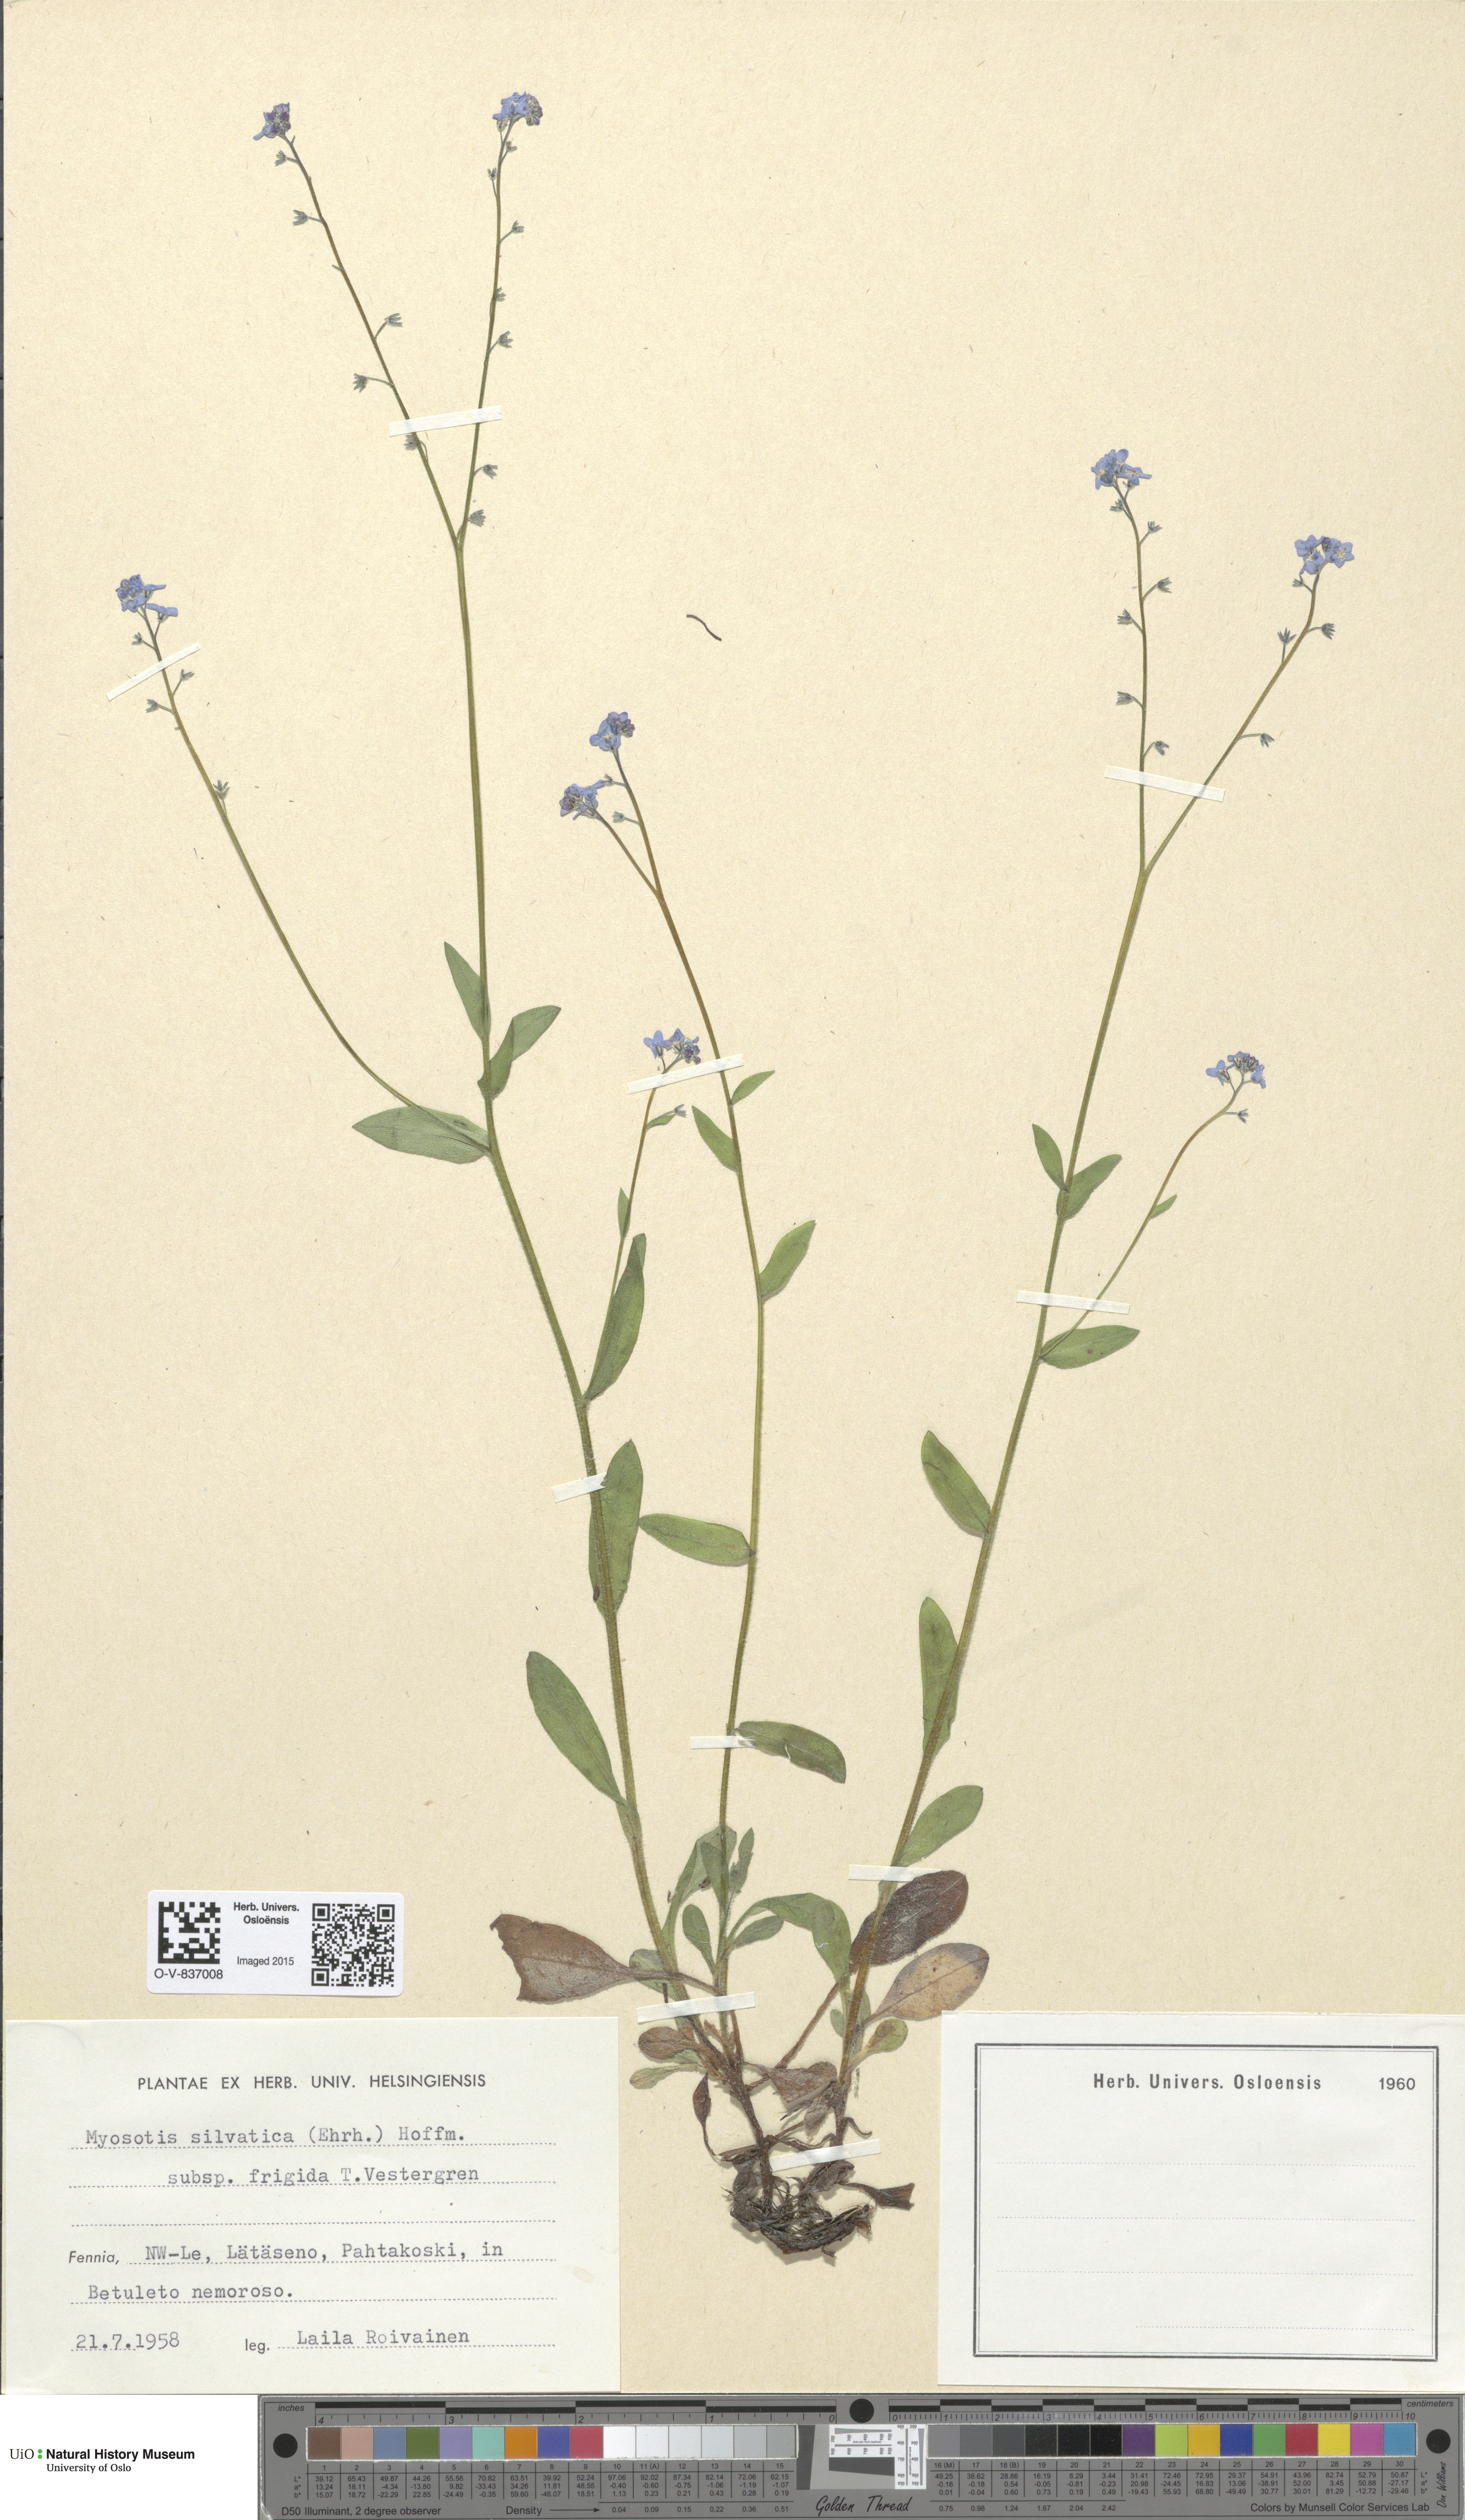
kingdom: Plantae
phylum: Tracheophyta
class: Magnoliopsida
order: Boraginales
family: Boraginaceae
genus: Myosotis
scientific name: Myosotis decumbens
